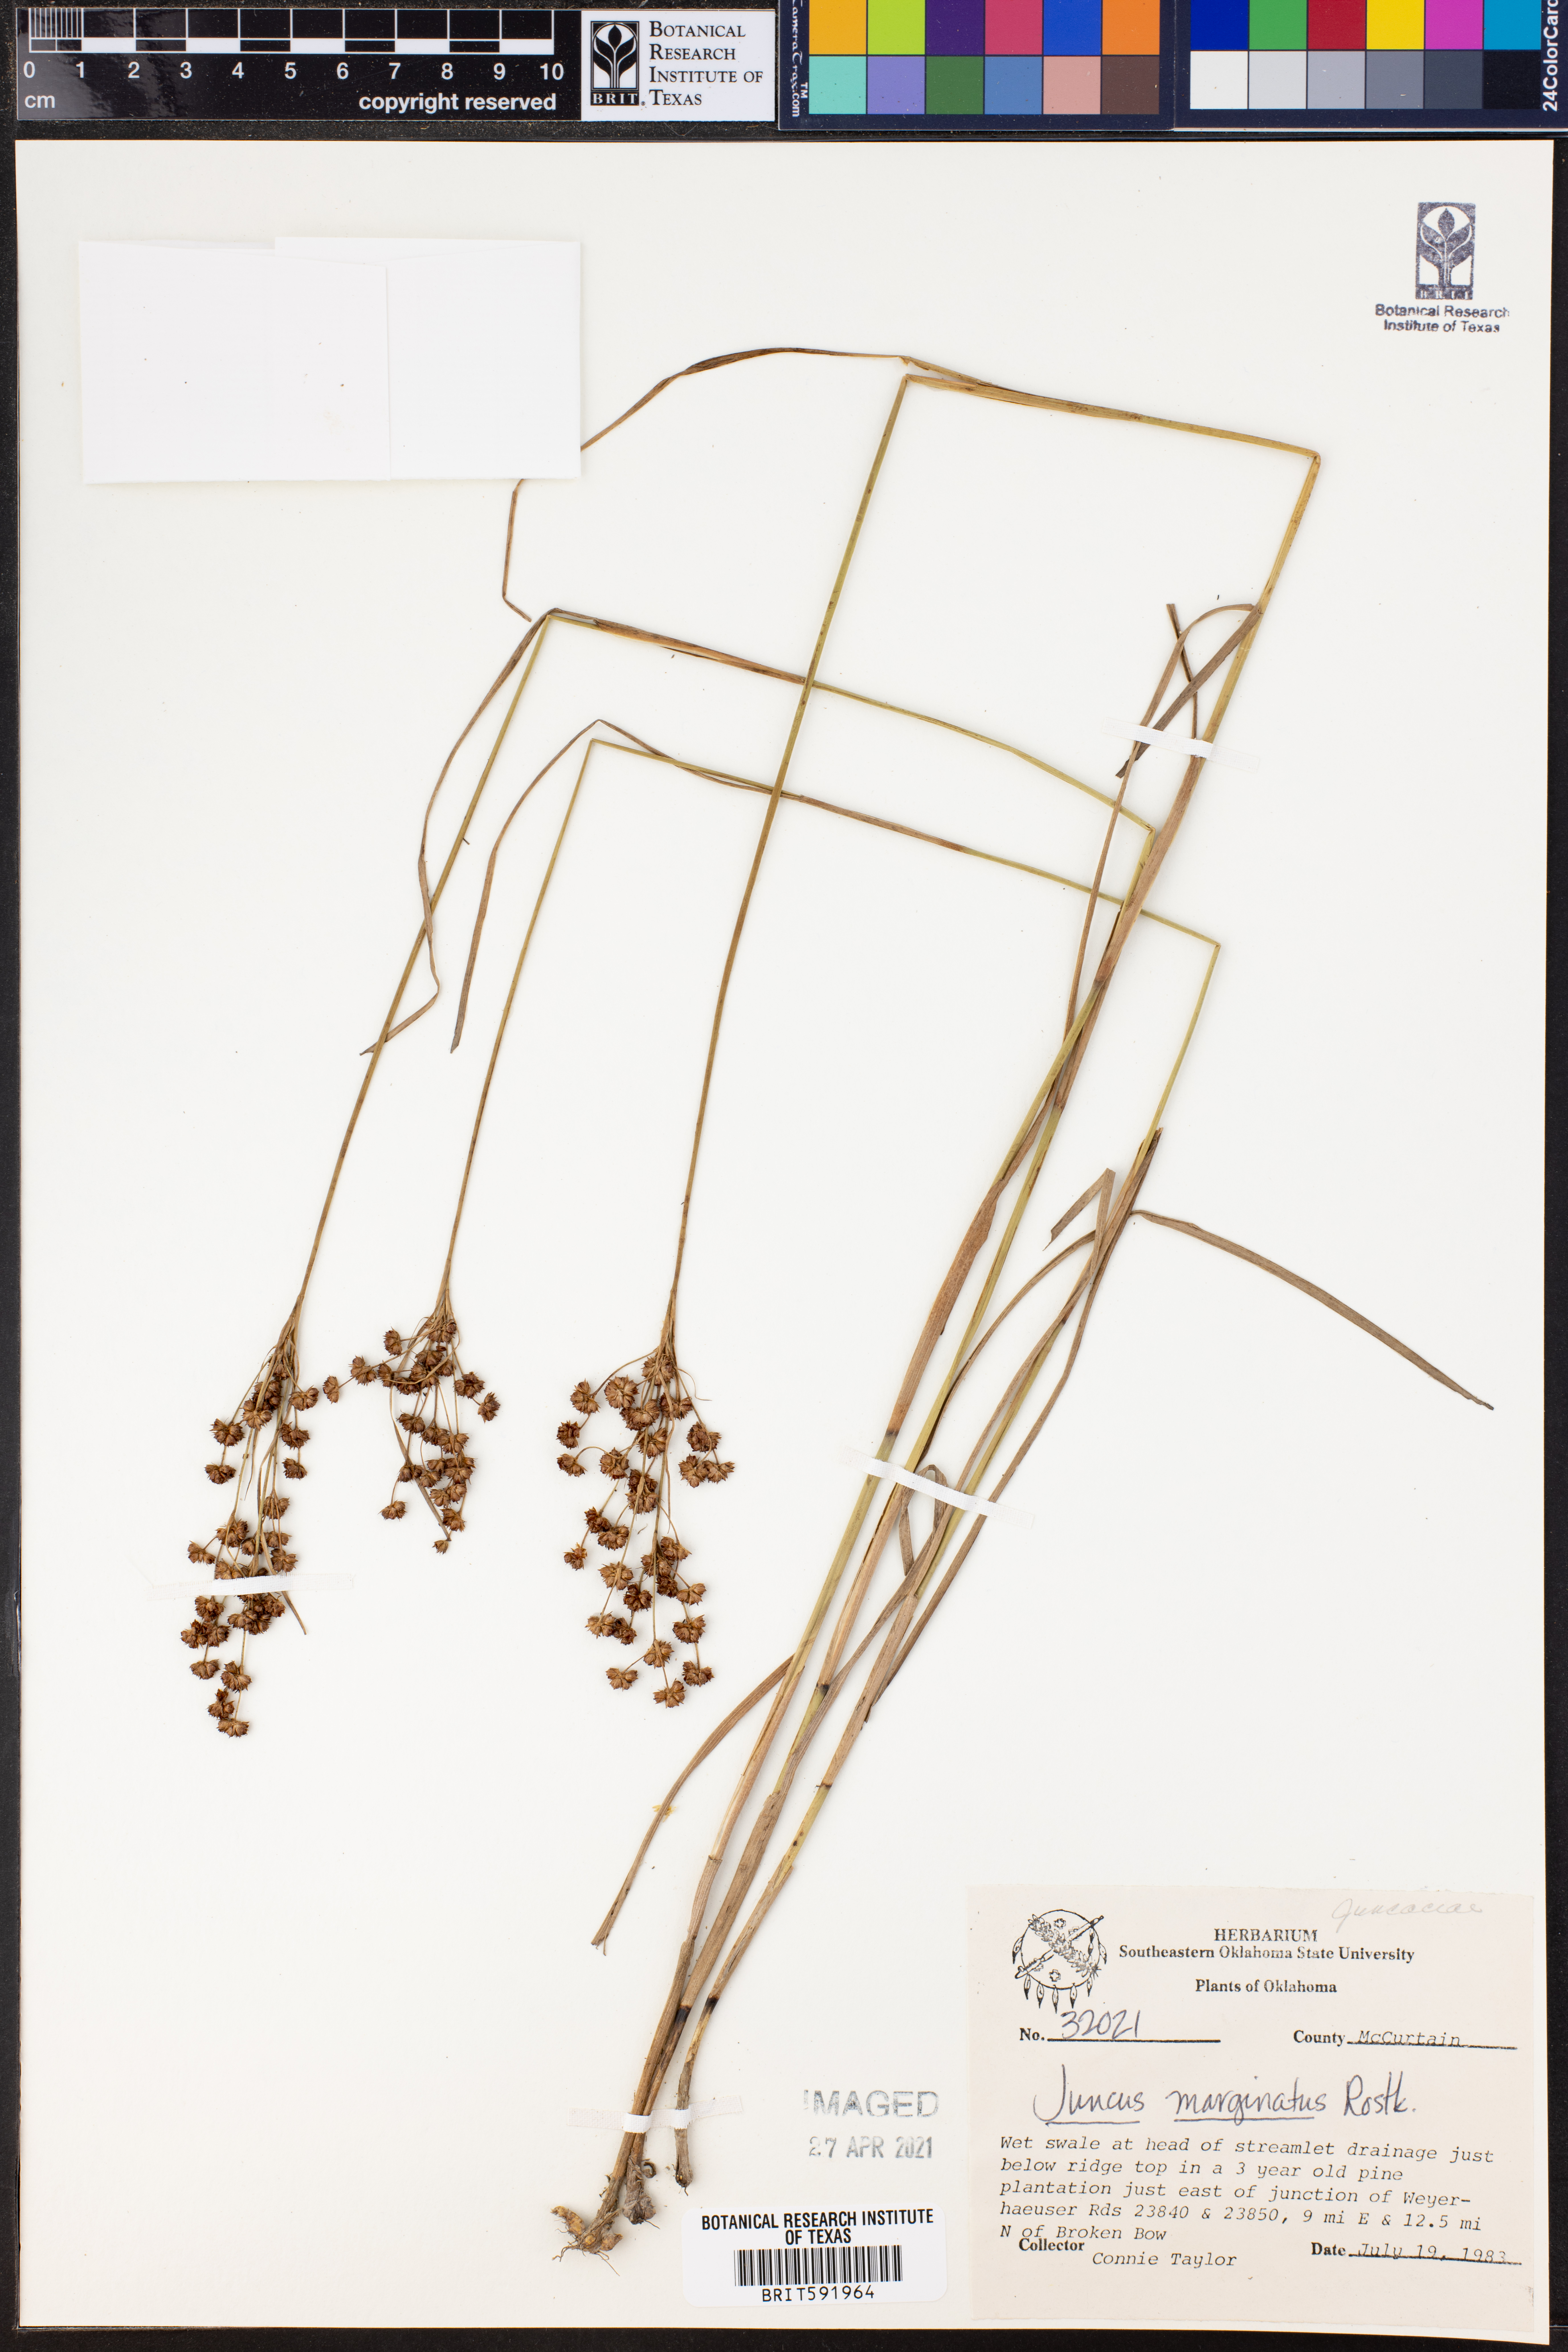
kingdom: Plantae
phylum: Tracheophyta
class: Liliopsida
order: Poales
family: Juncaceae
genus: Juncus
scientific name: Juncus marginatus
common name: Grass-leaf rush
